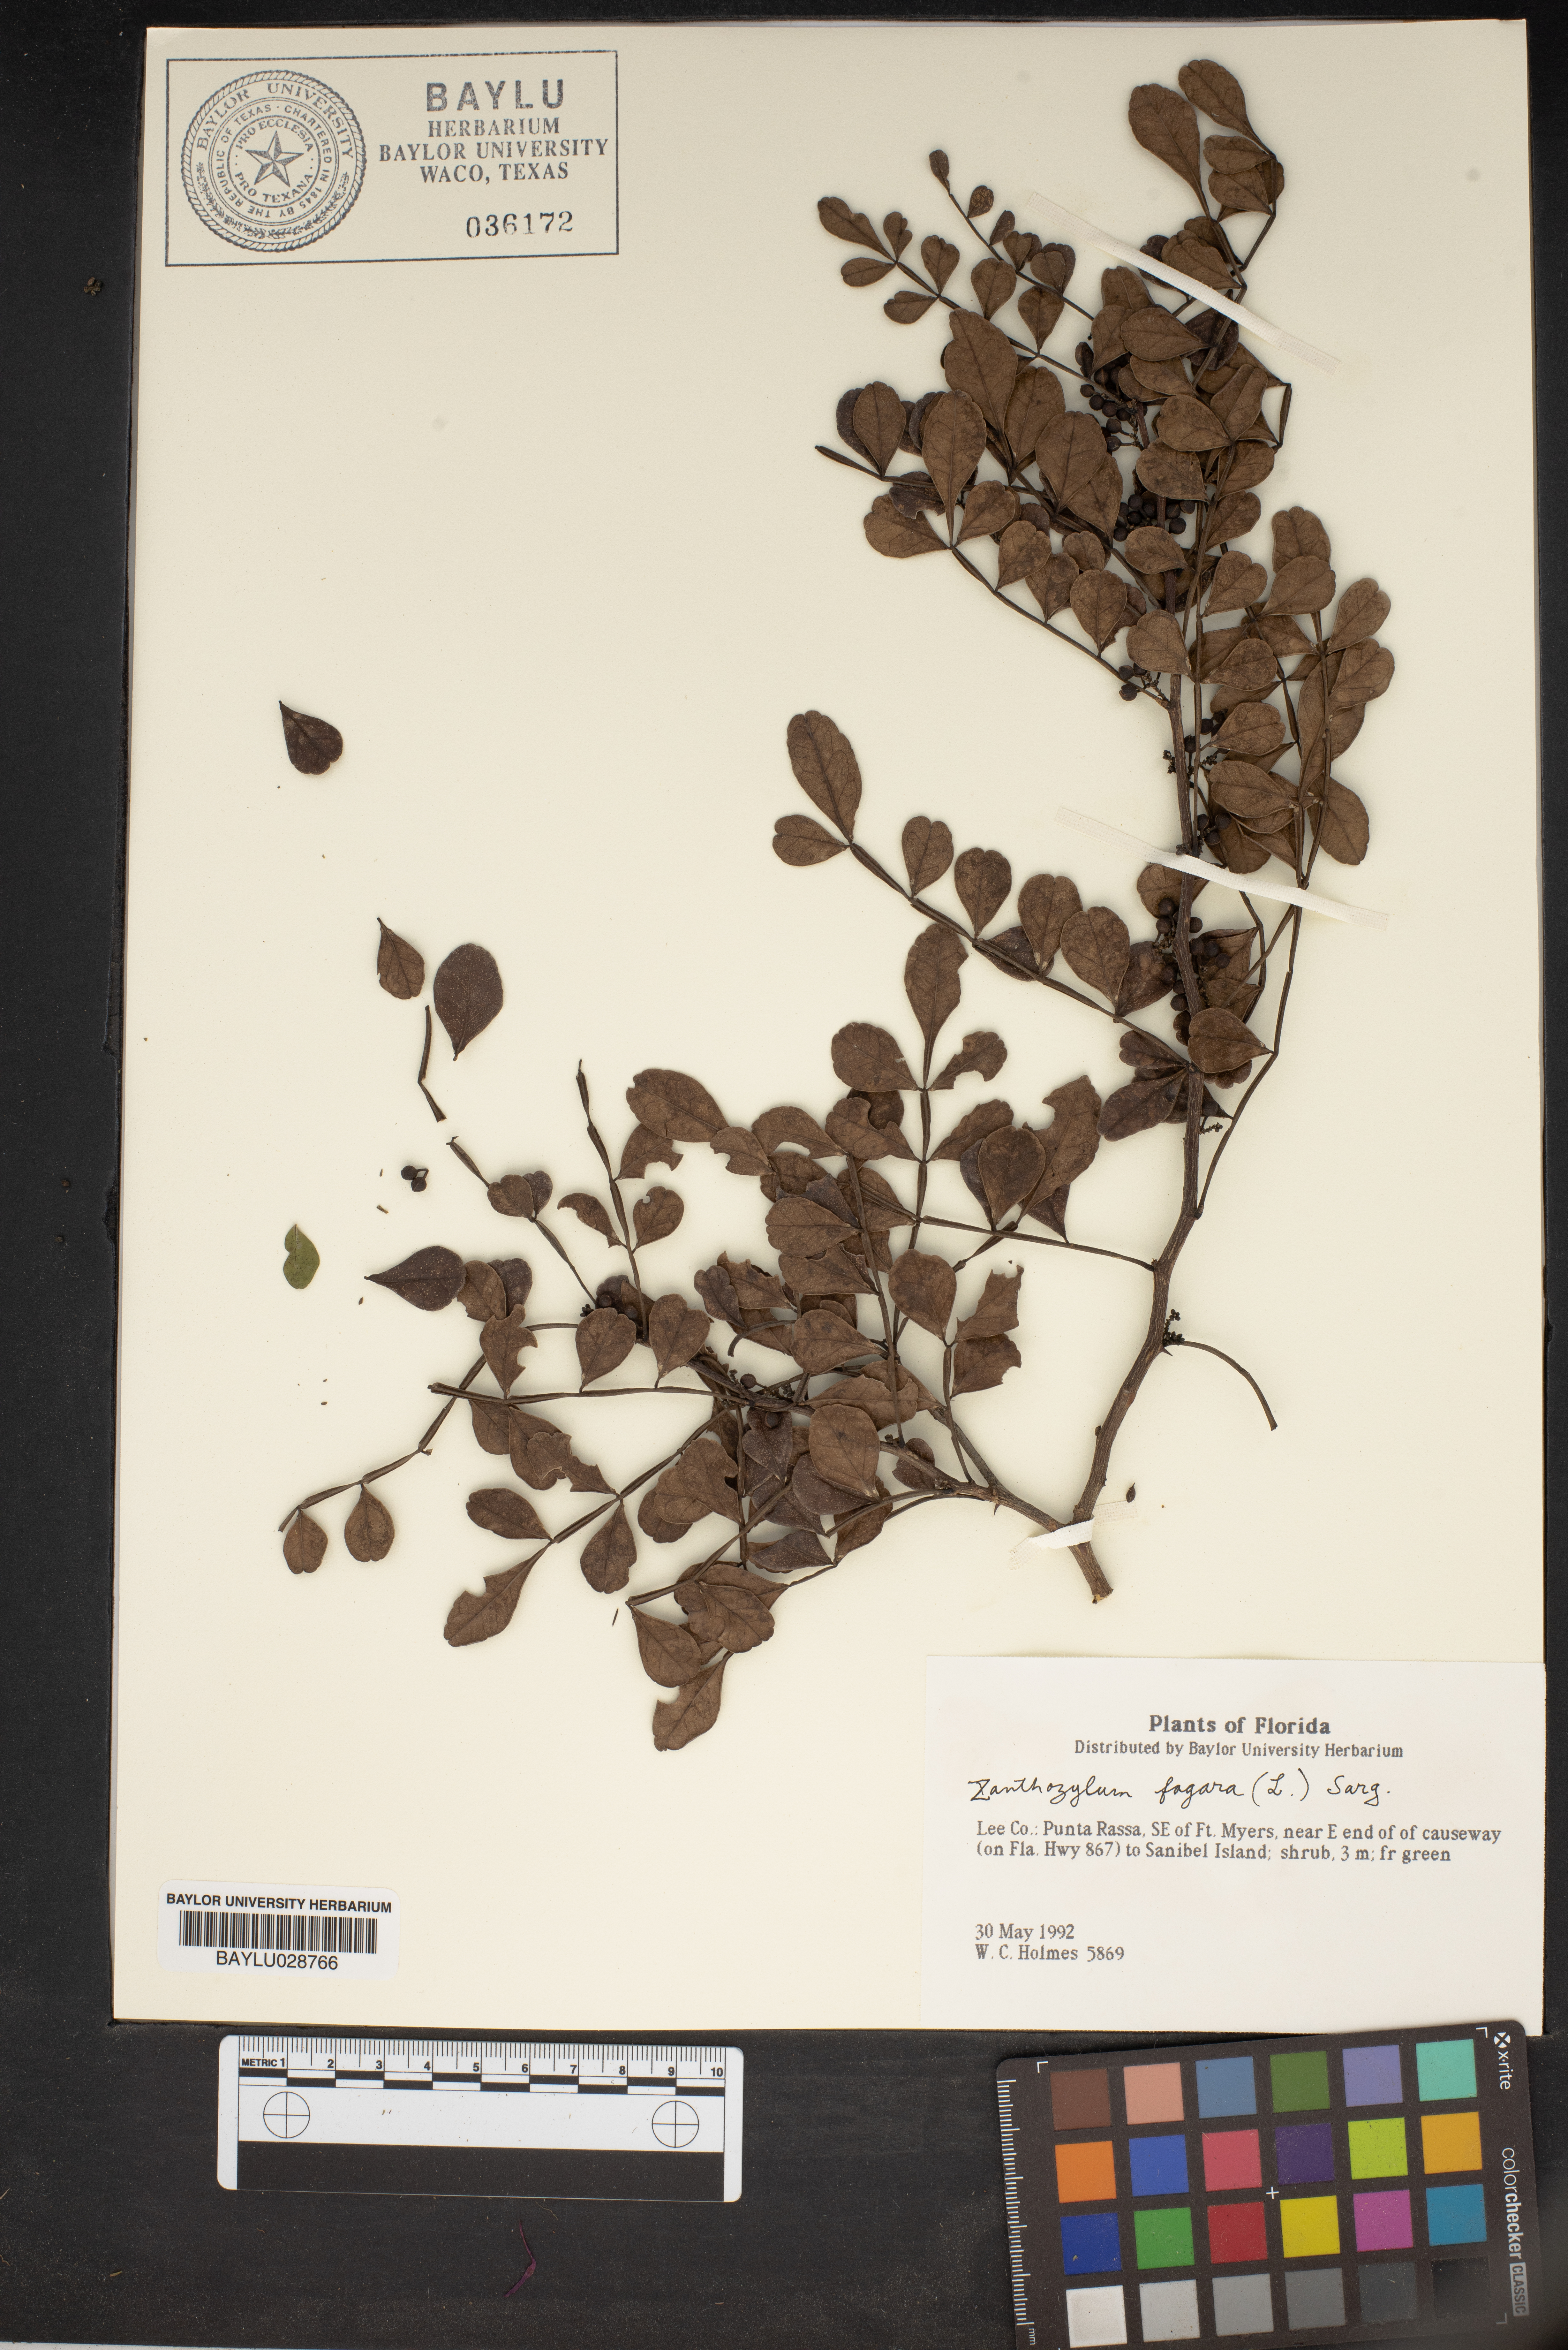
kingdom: Plantae
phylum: Tracheophyta
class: Magnoliopsida
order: Sapindales
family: Rutaceae
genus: Zanthoxylum
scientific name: Zanthoxylum fagara
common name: Lime prickly-ash
